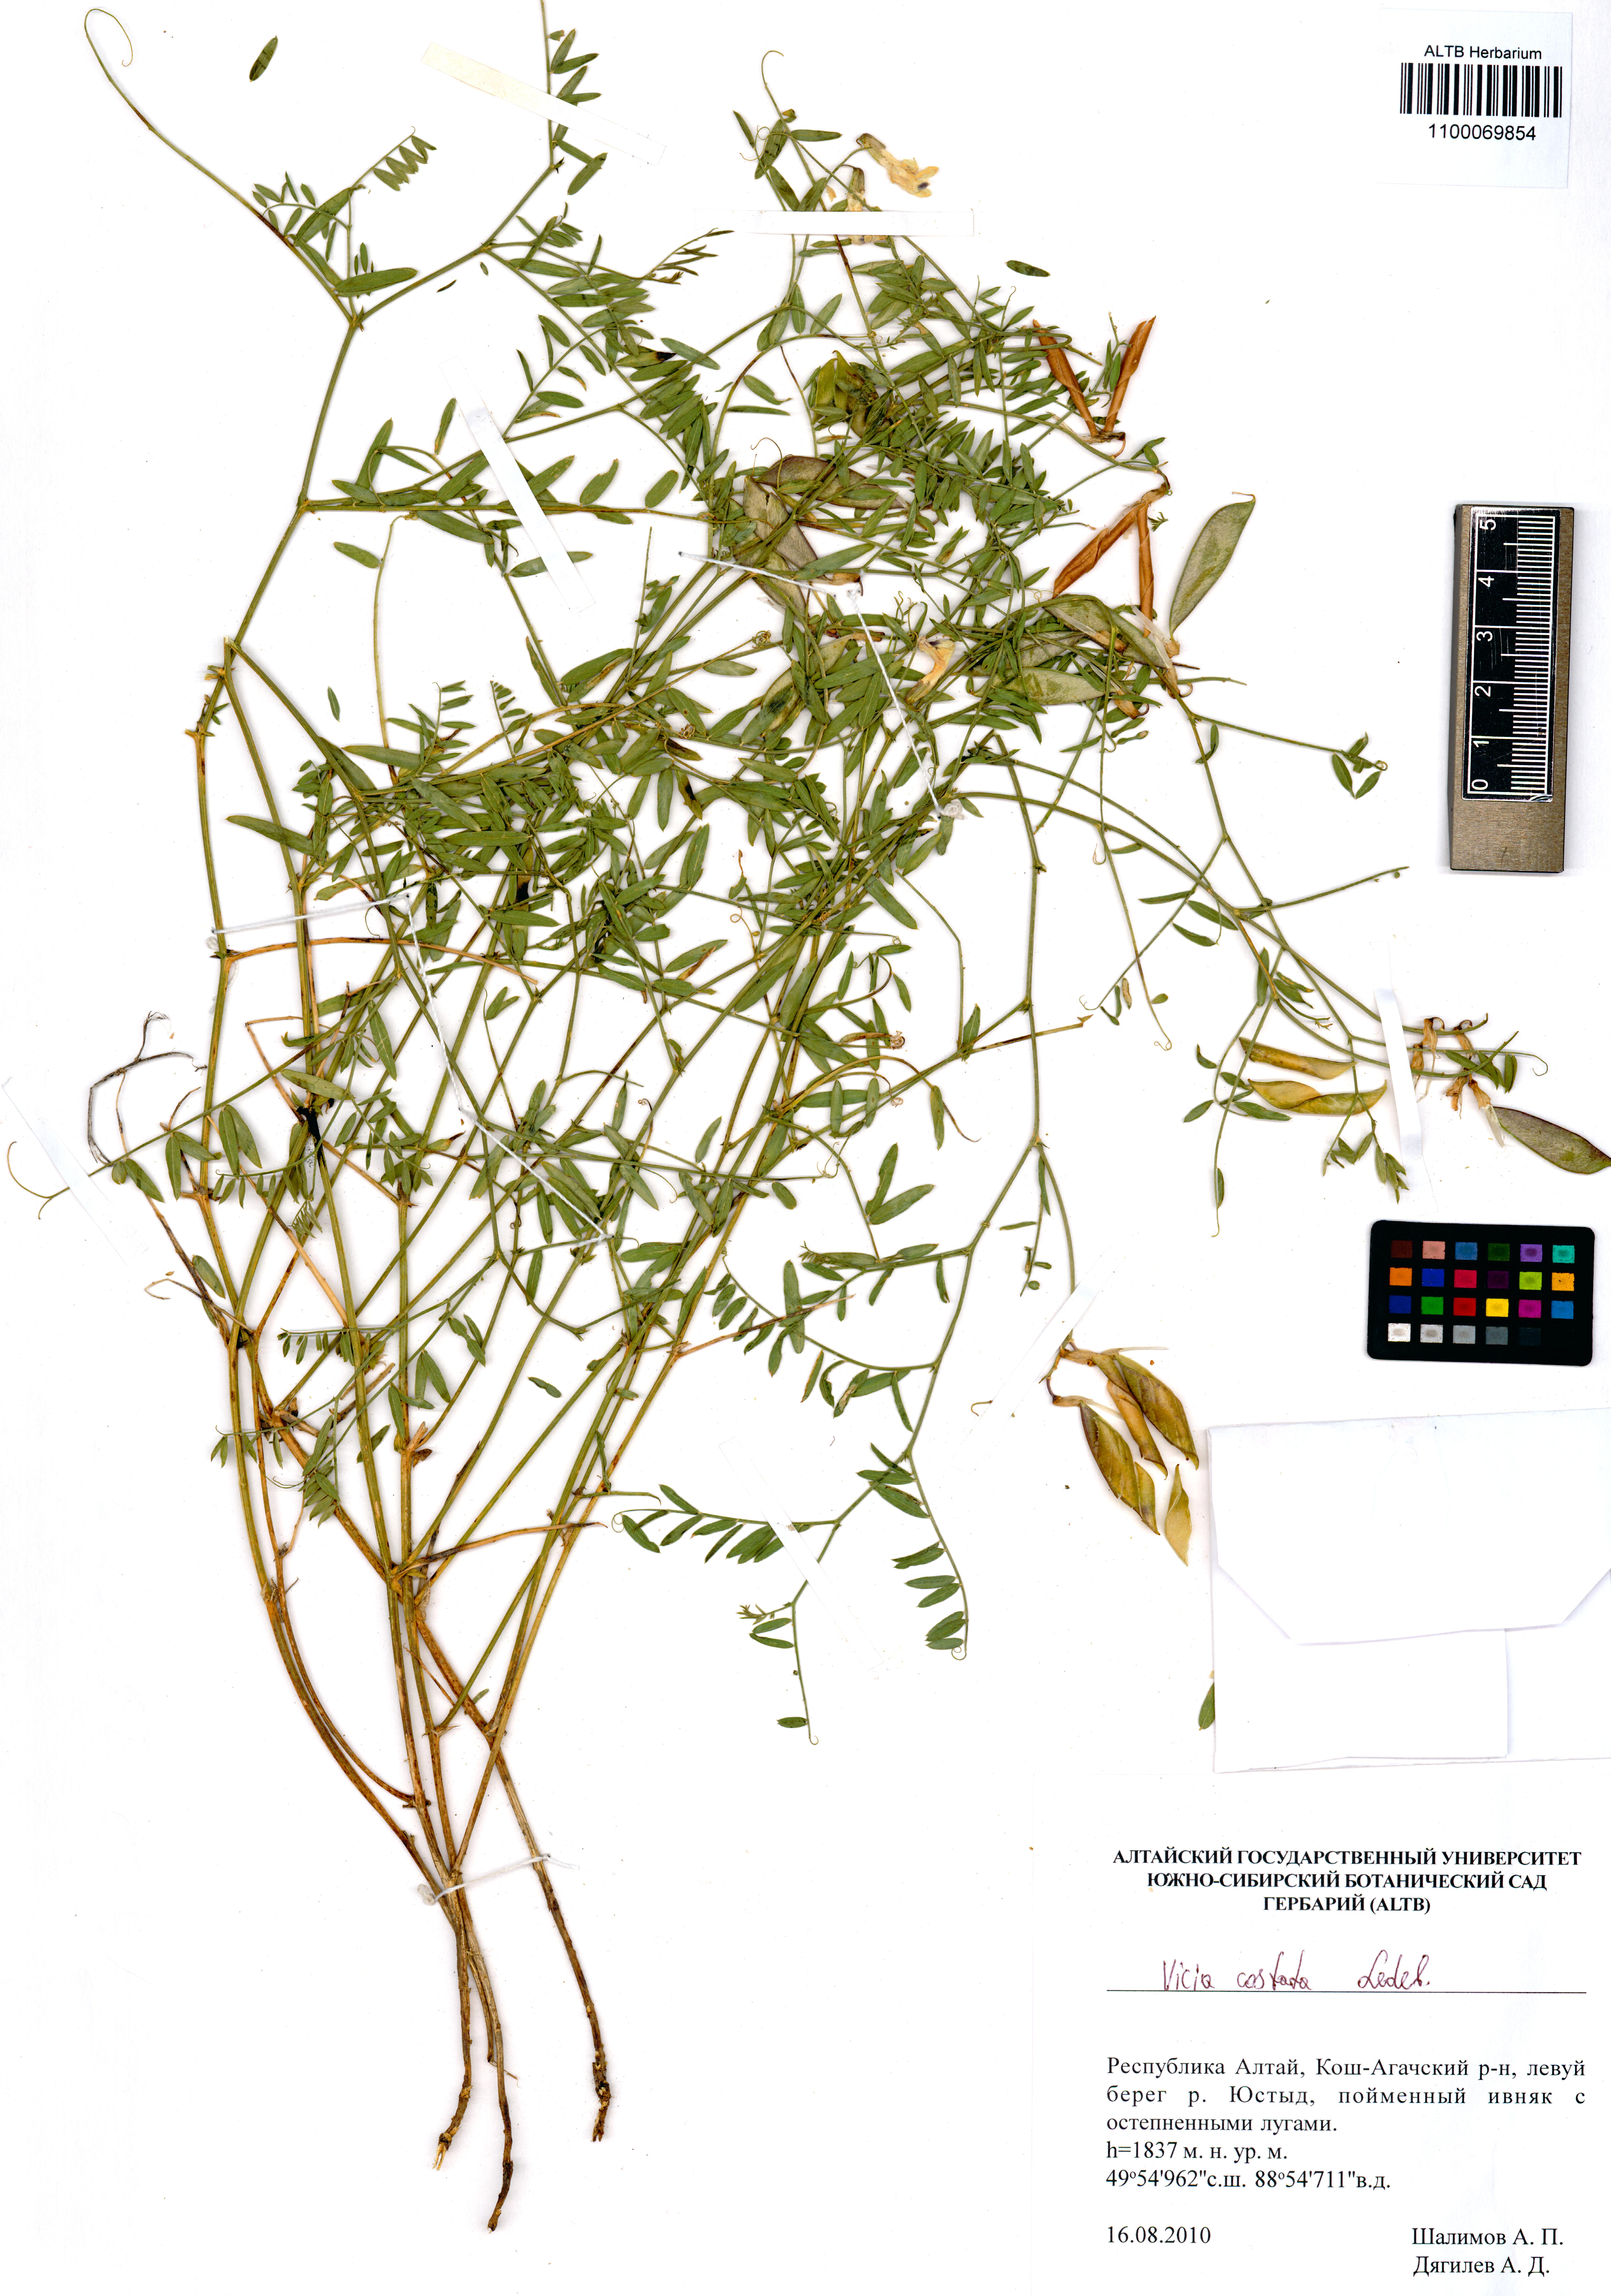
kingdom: Plantae
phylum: Tracheophyta
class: Magnoliopsida
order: Fabales
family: Fabaceae
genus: Vicia
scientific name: Vicia costata
